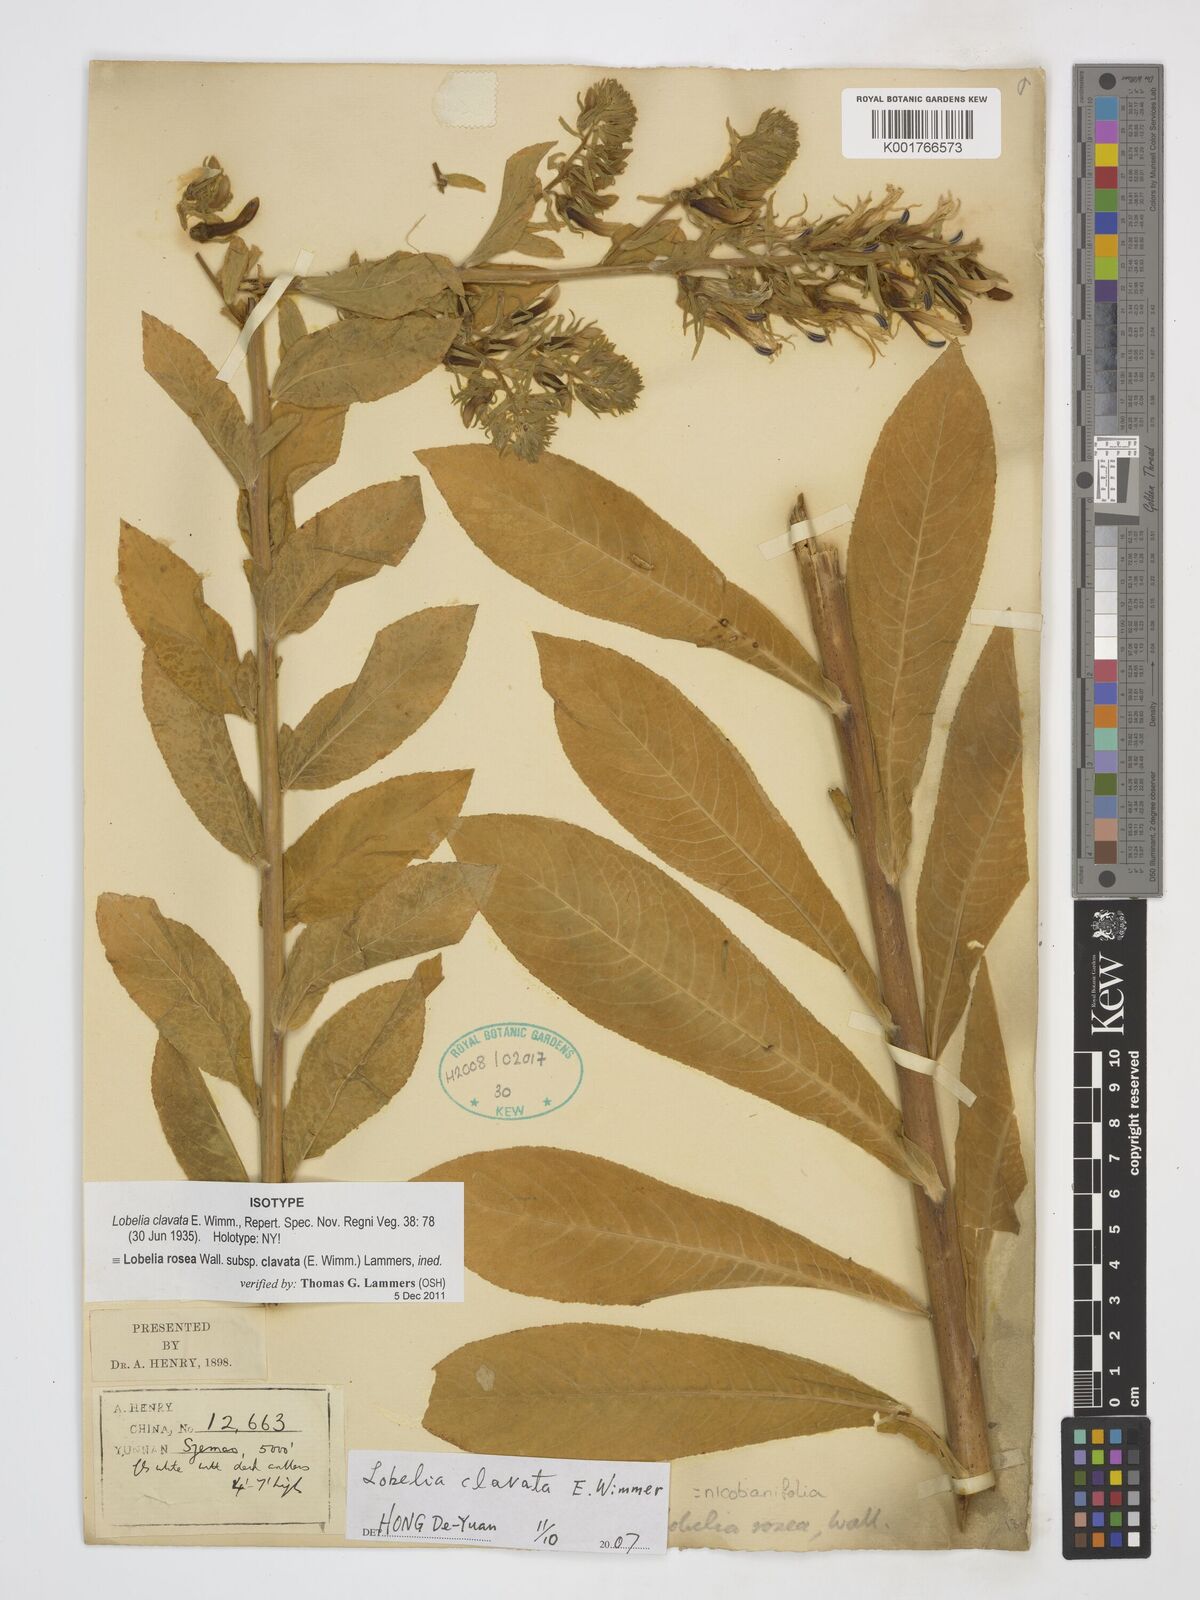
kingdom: Plantae
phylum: Tracheophyta
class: Magnoliopsida
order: Asterales
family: Campanulaceae
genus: Lobelia
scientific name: Lobelia rosea
